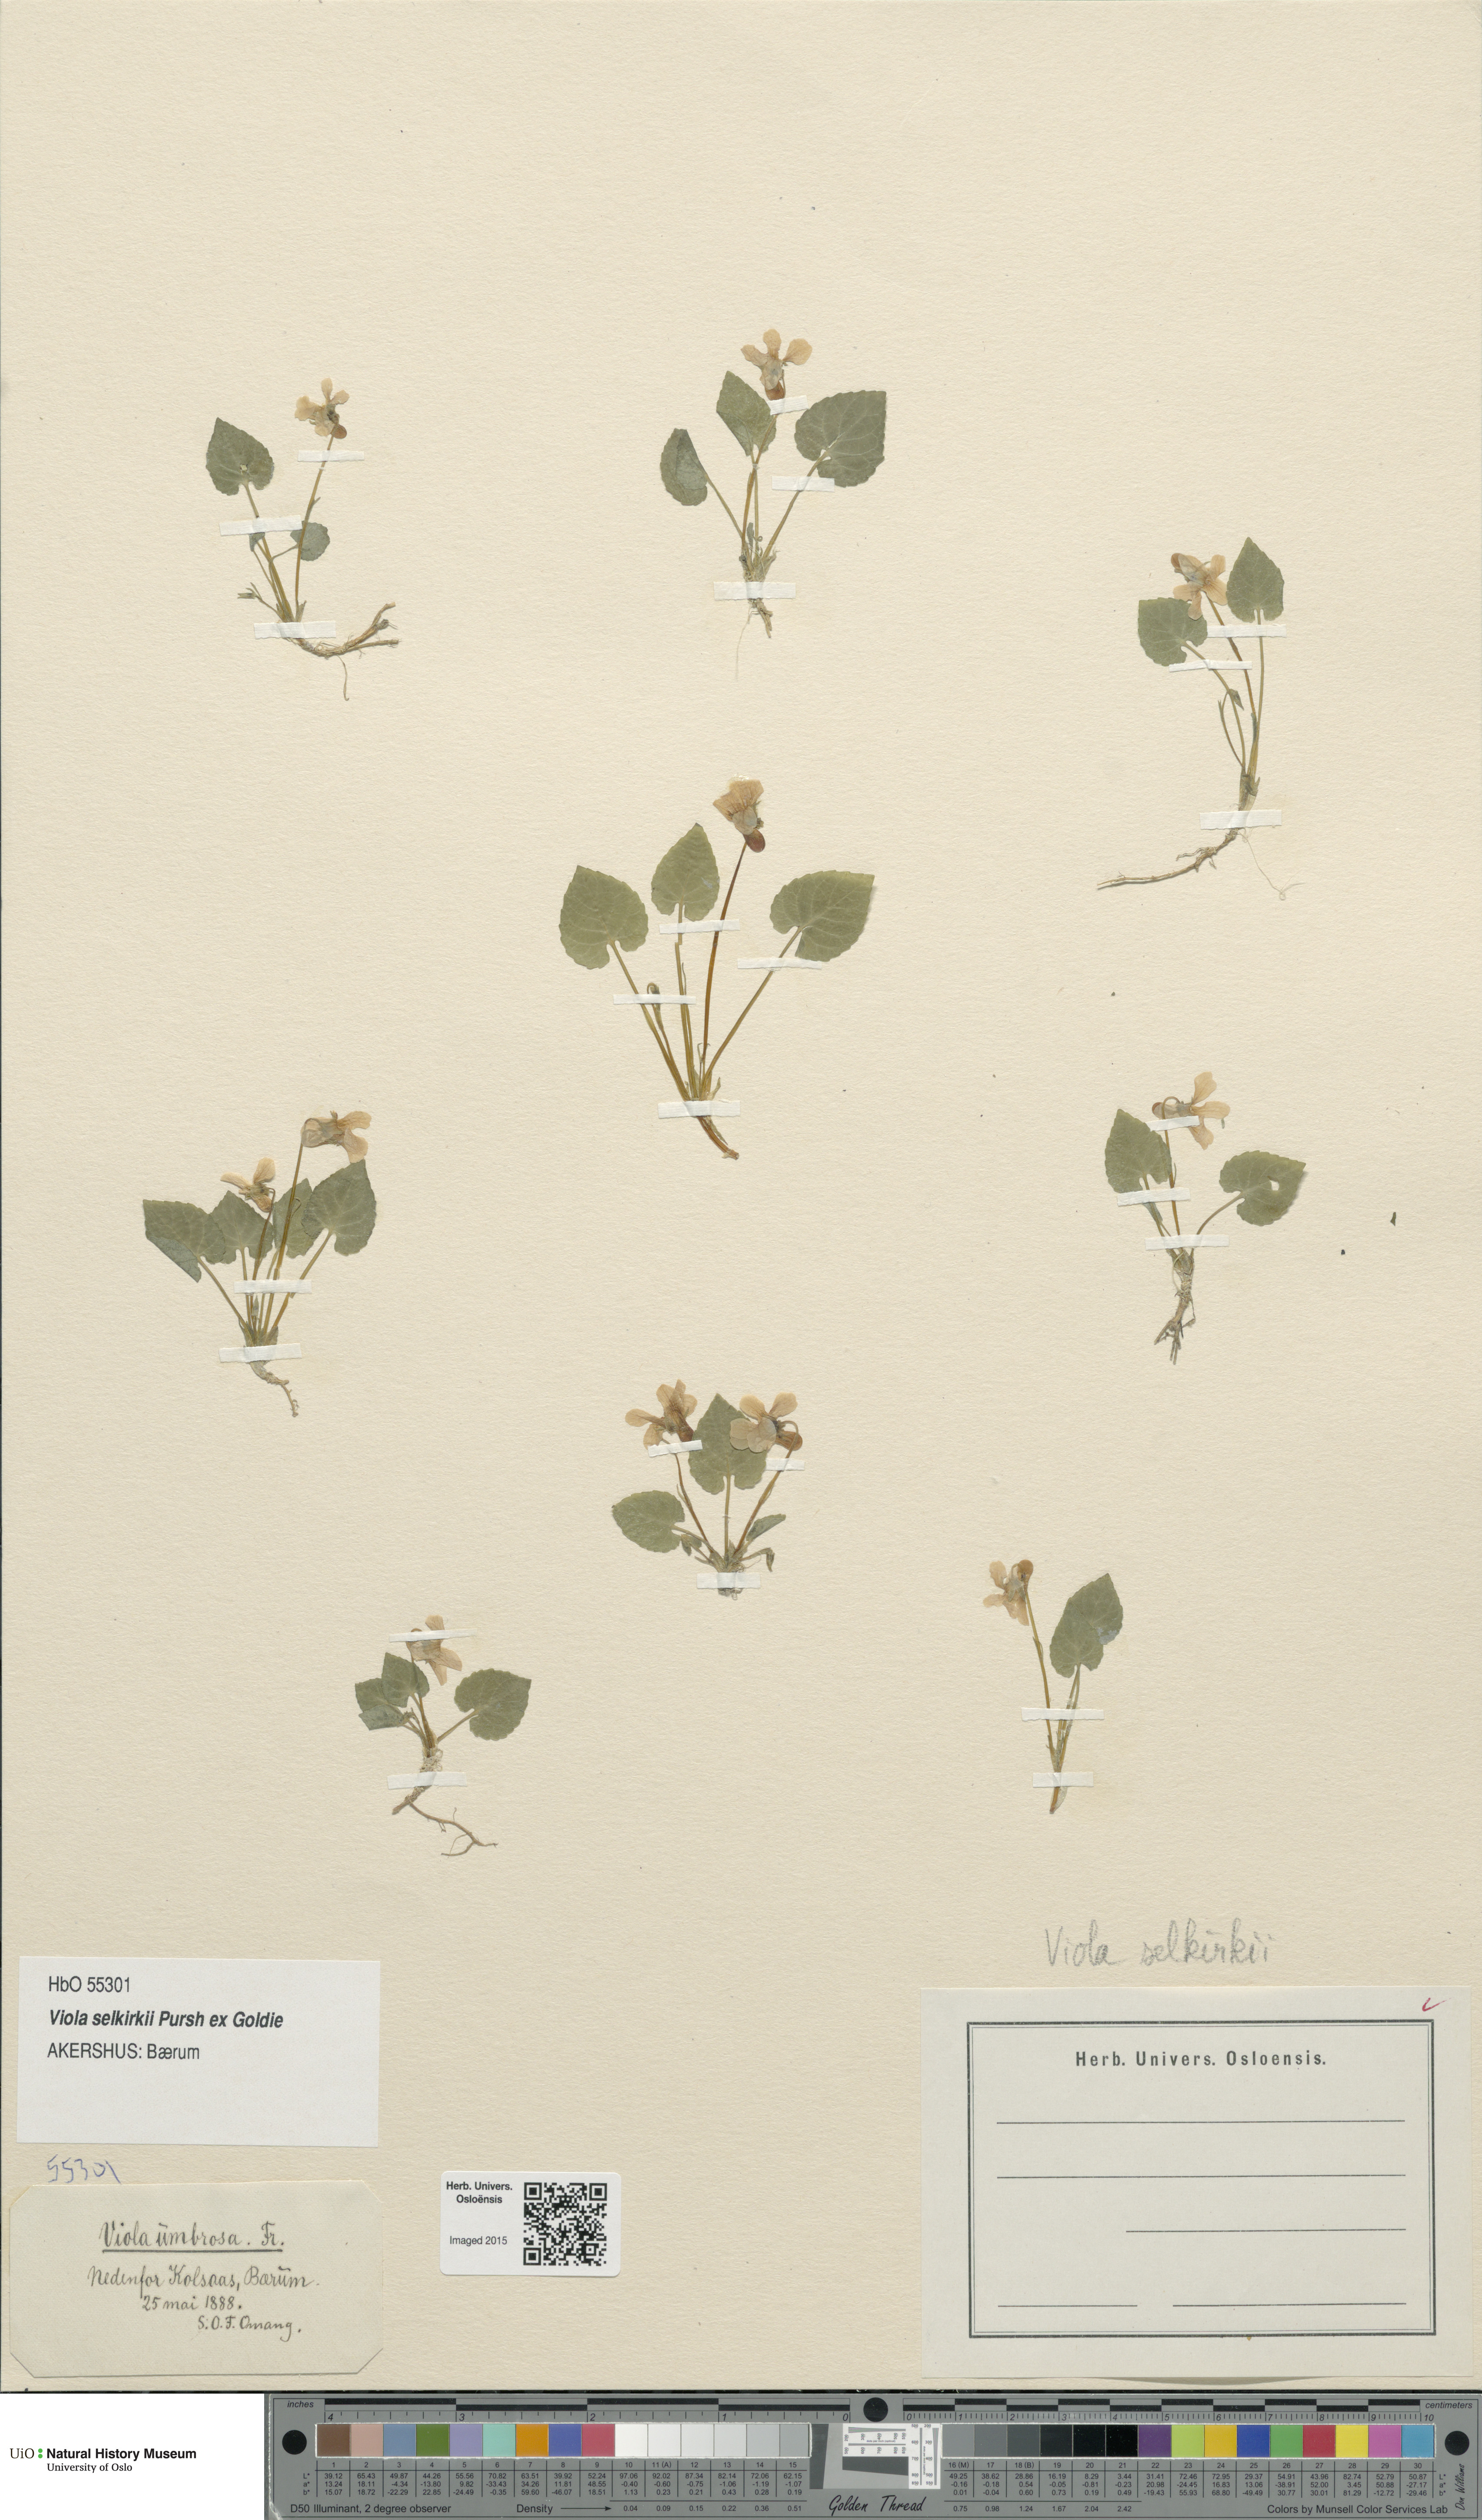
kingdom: Plantae
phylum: Tracheophyta
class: Magnoliopsida
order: Malpighiales
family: Violaceae
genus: Viola
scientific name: Viola selkirkii
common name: Selkirk's violet
